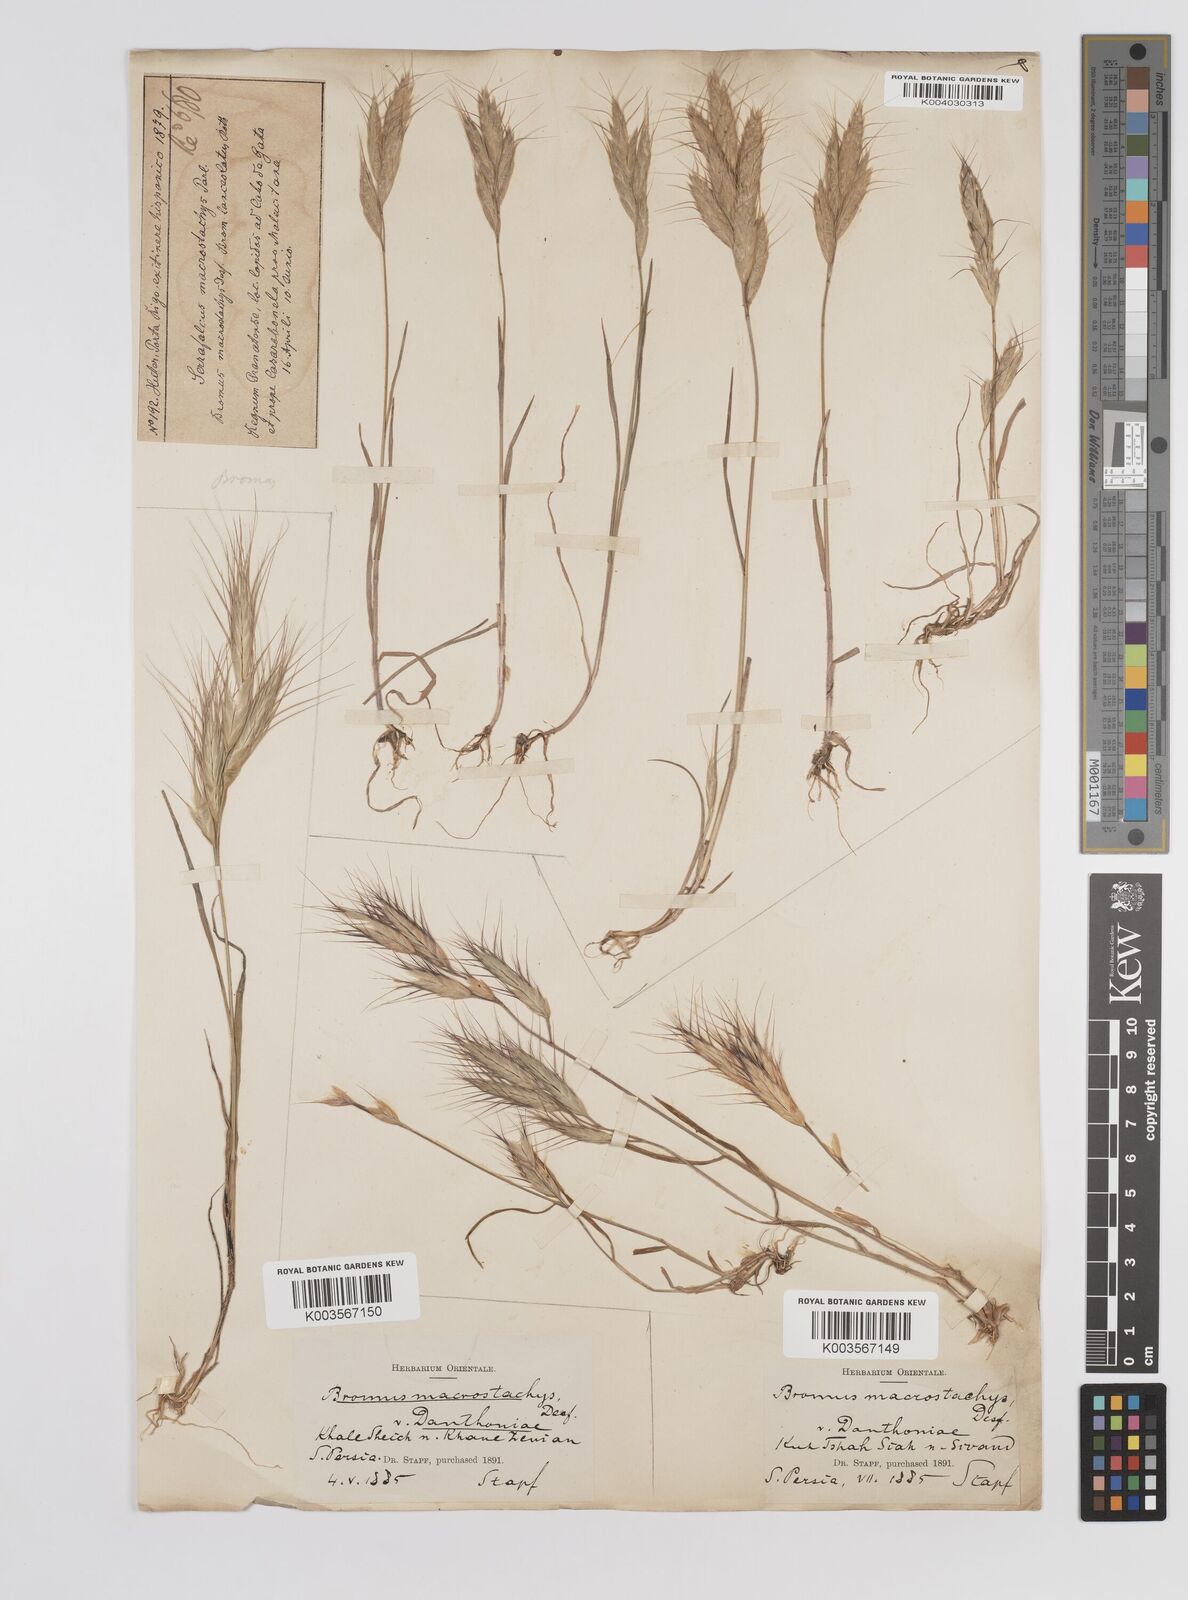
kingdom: Plantae
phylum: Tracheophyta
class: Liliopsida
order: Poales
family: Poaceae
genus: Bromus
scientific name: Bromus danthoniae
